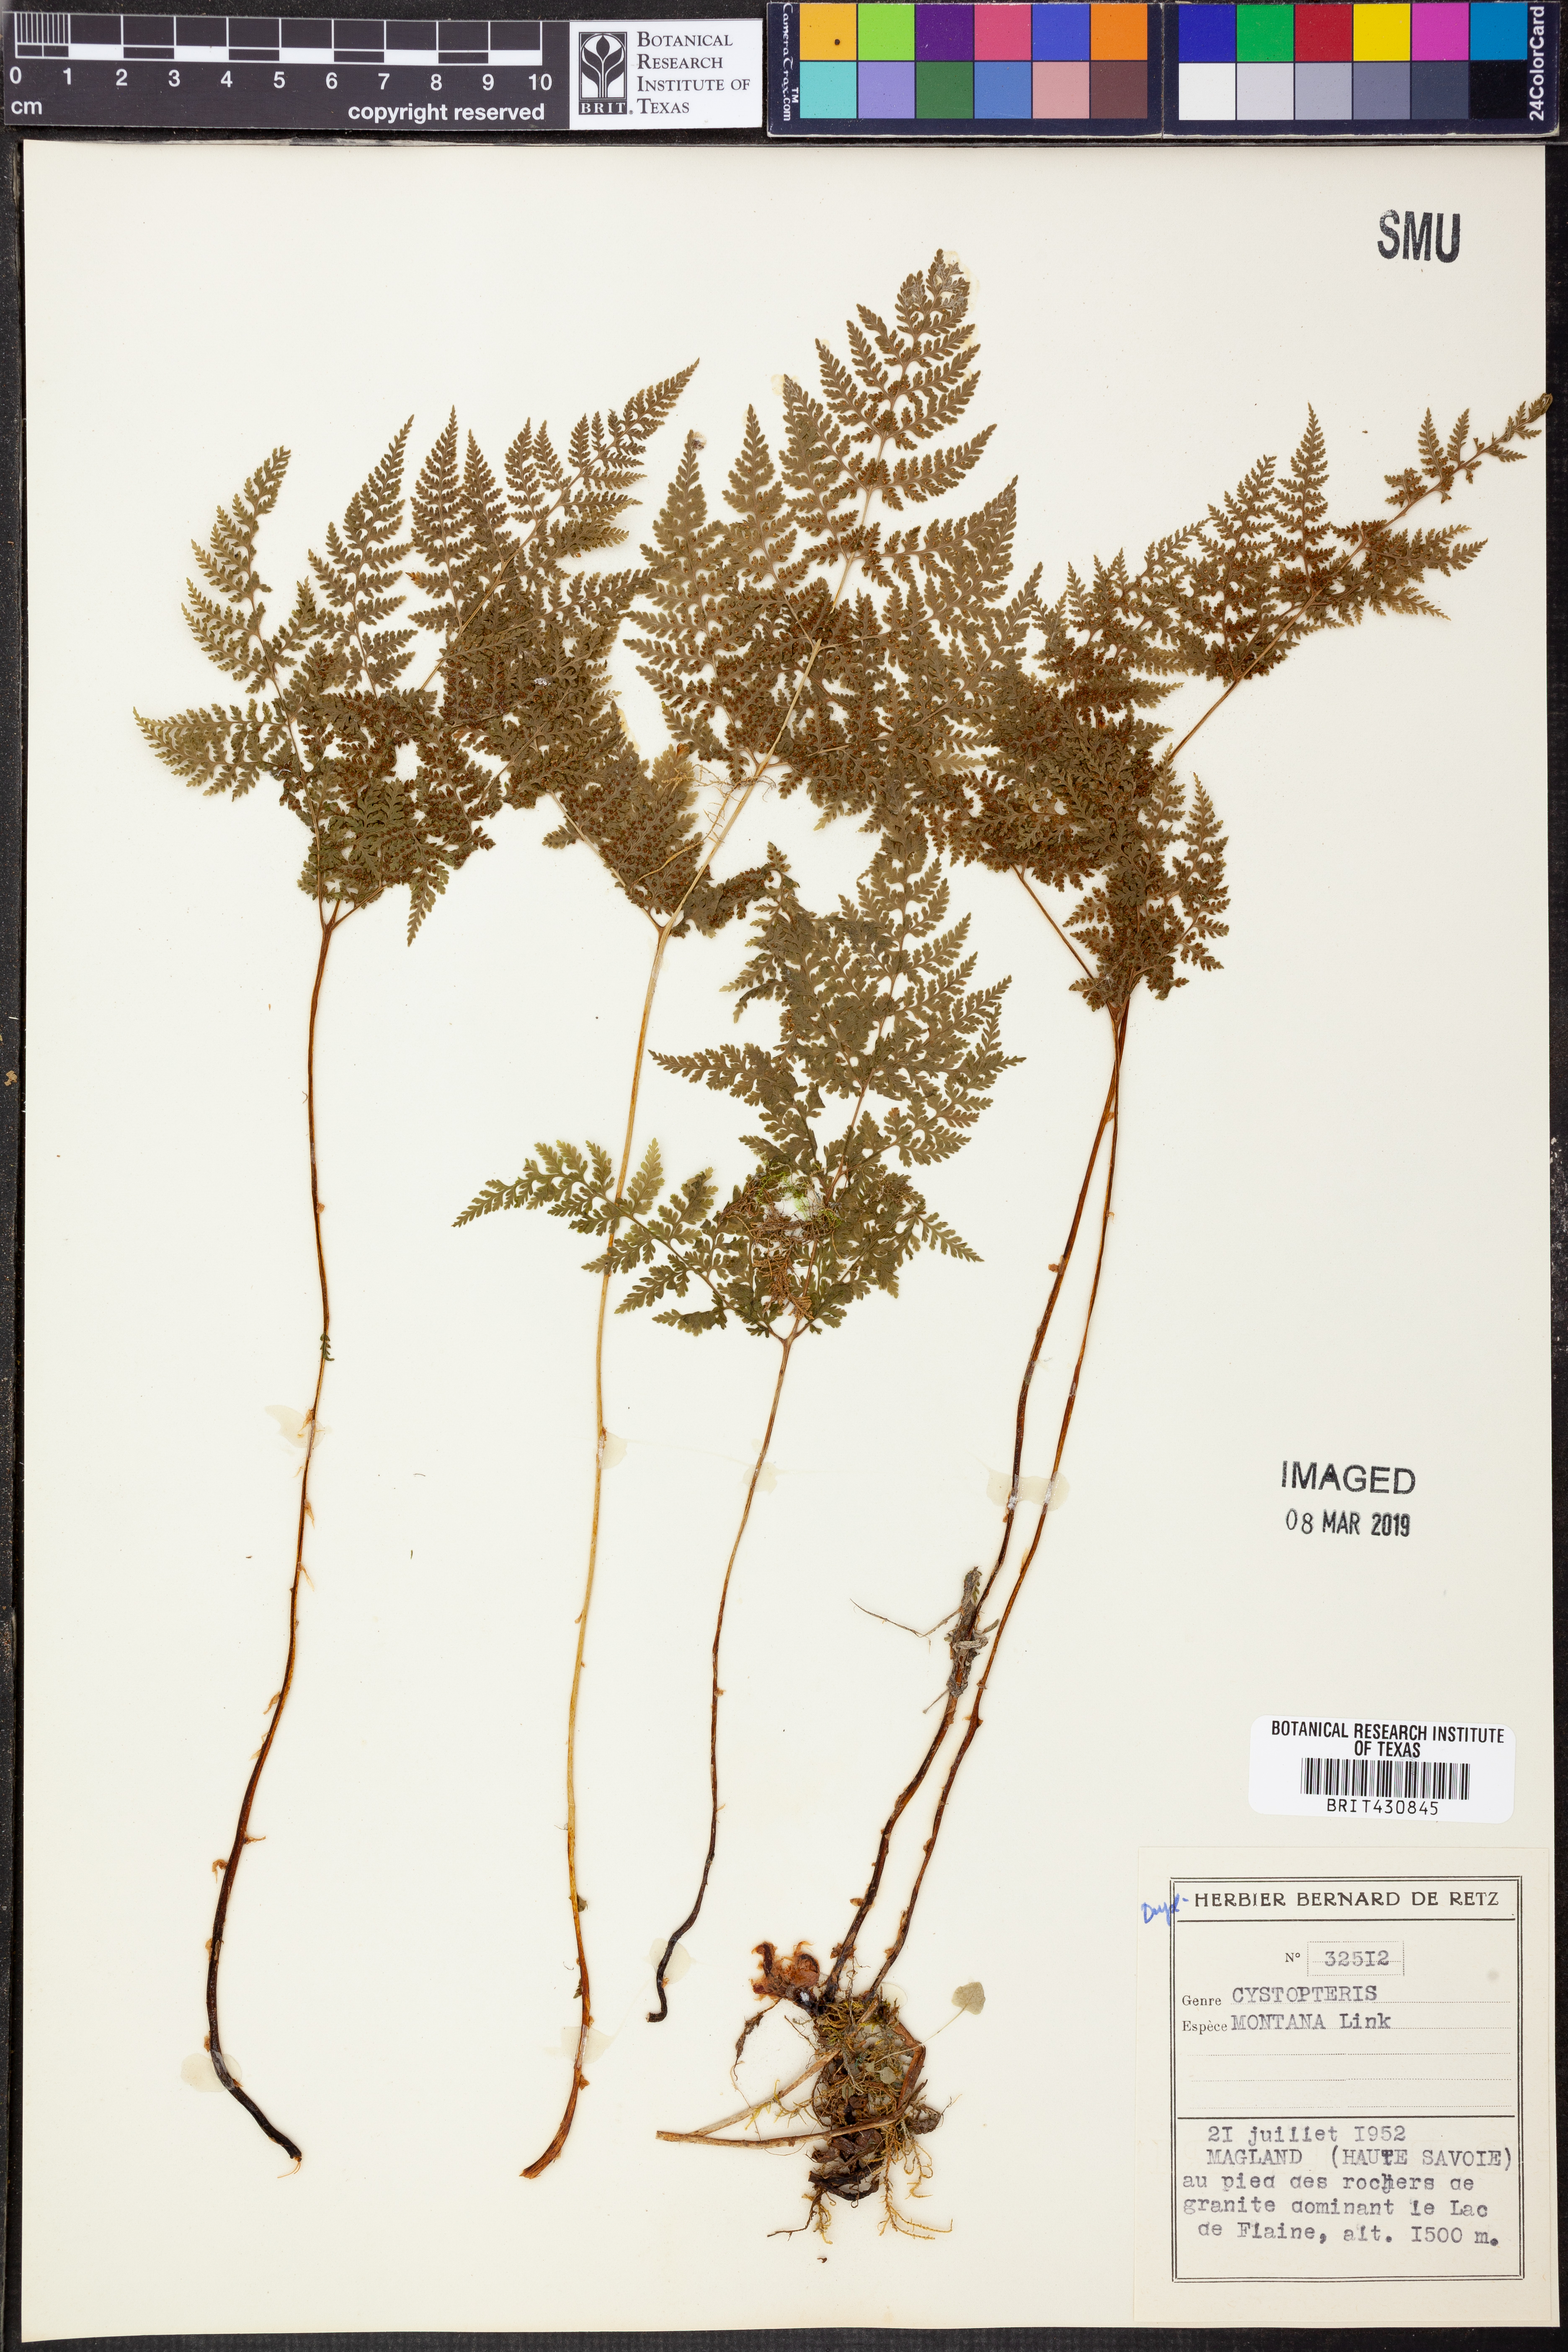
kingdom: Plantae
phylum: Tracheophyta
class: Polypodiopsida
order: Polypodiales
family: Cystopteridaceae
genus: Cystopteris
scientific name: Cystopteris montana
